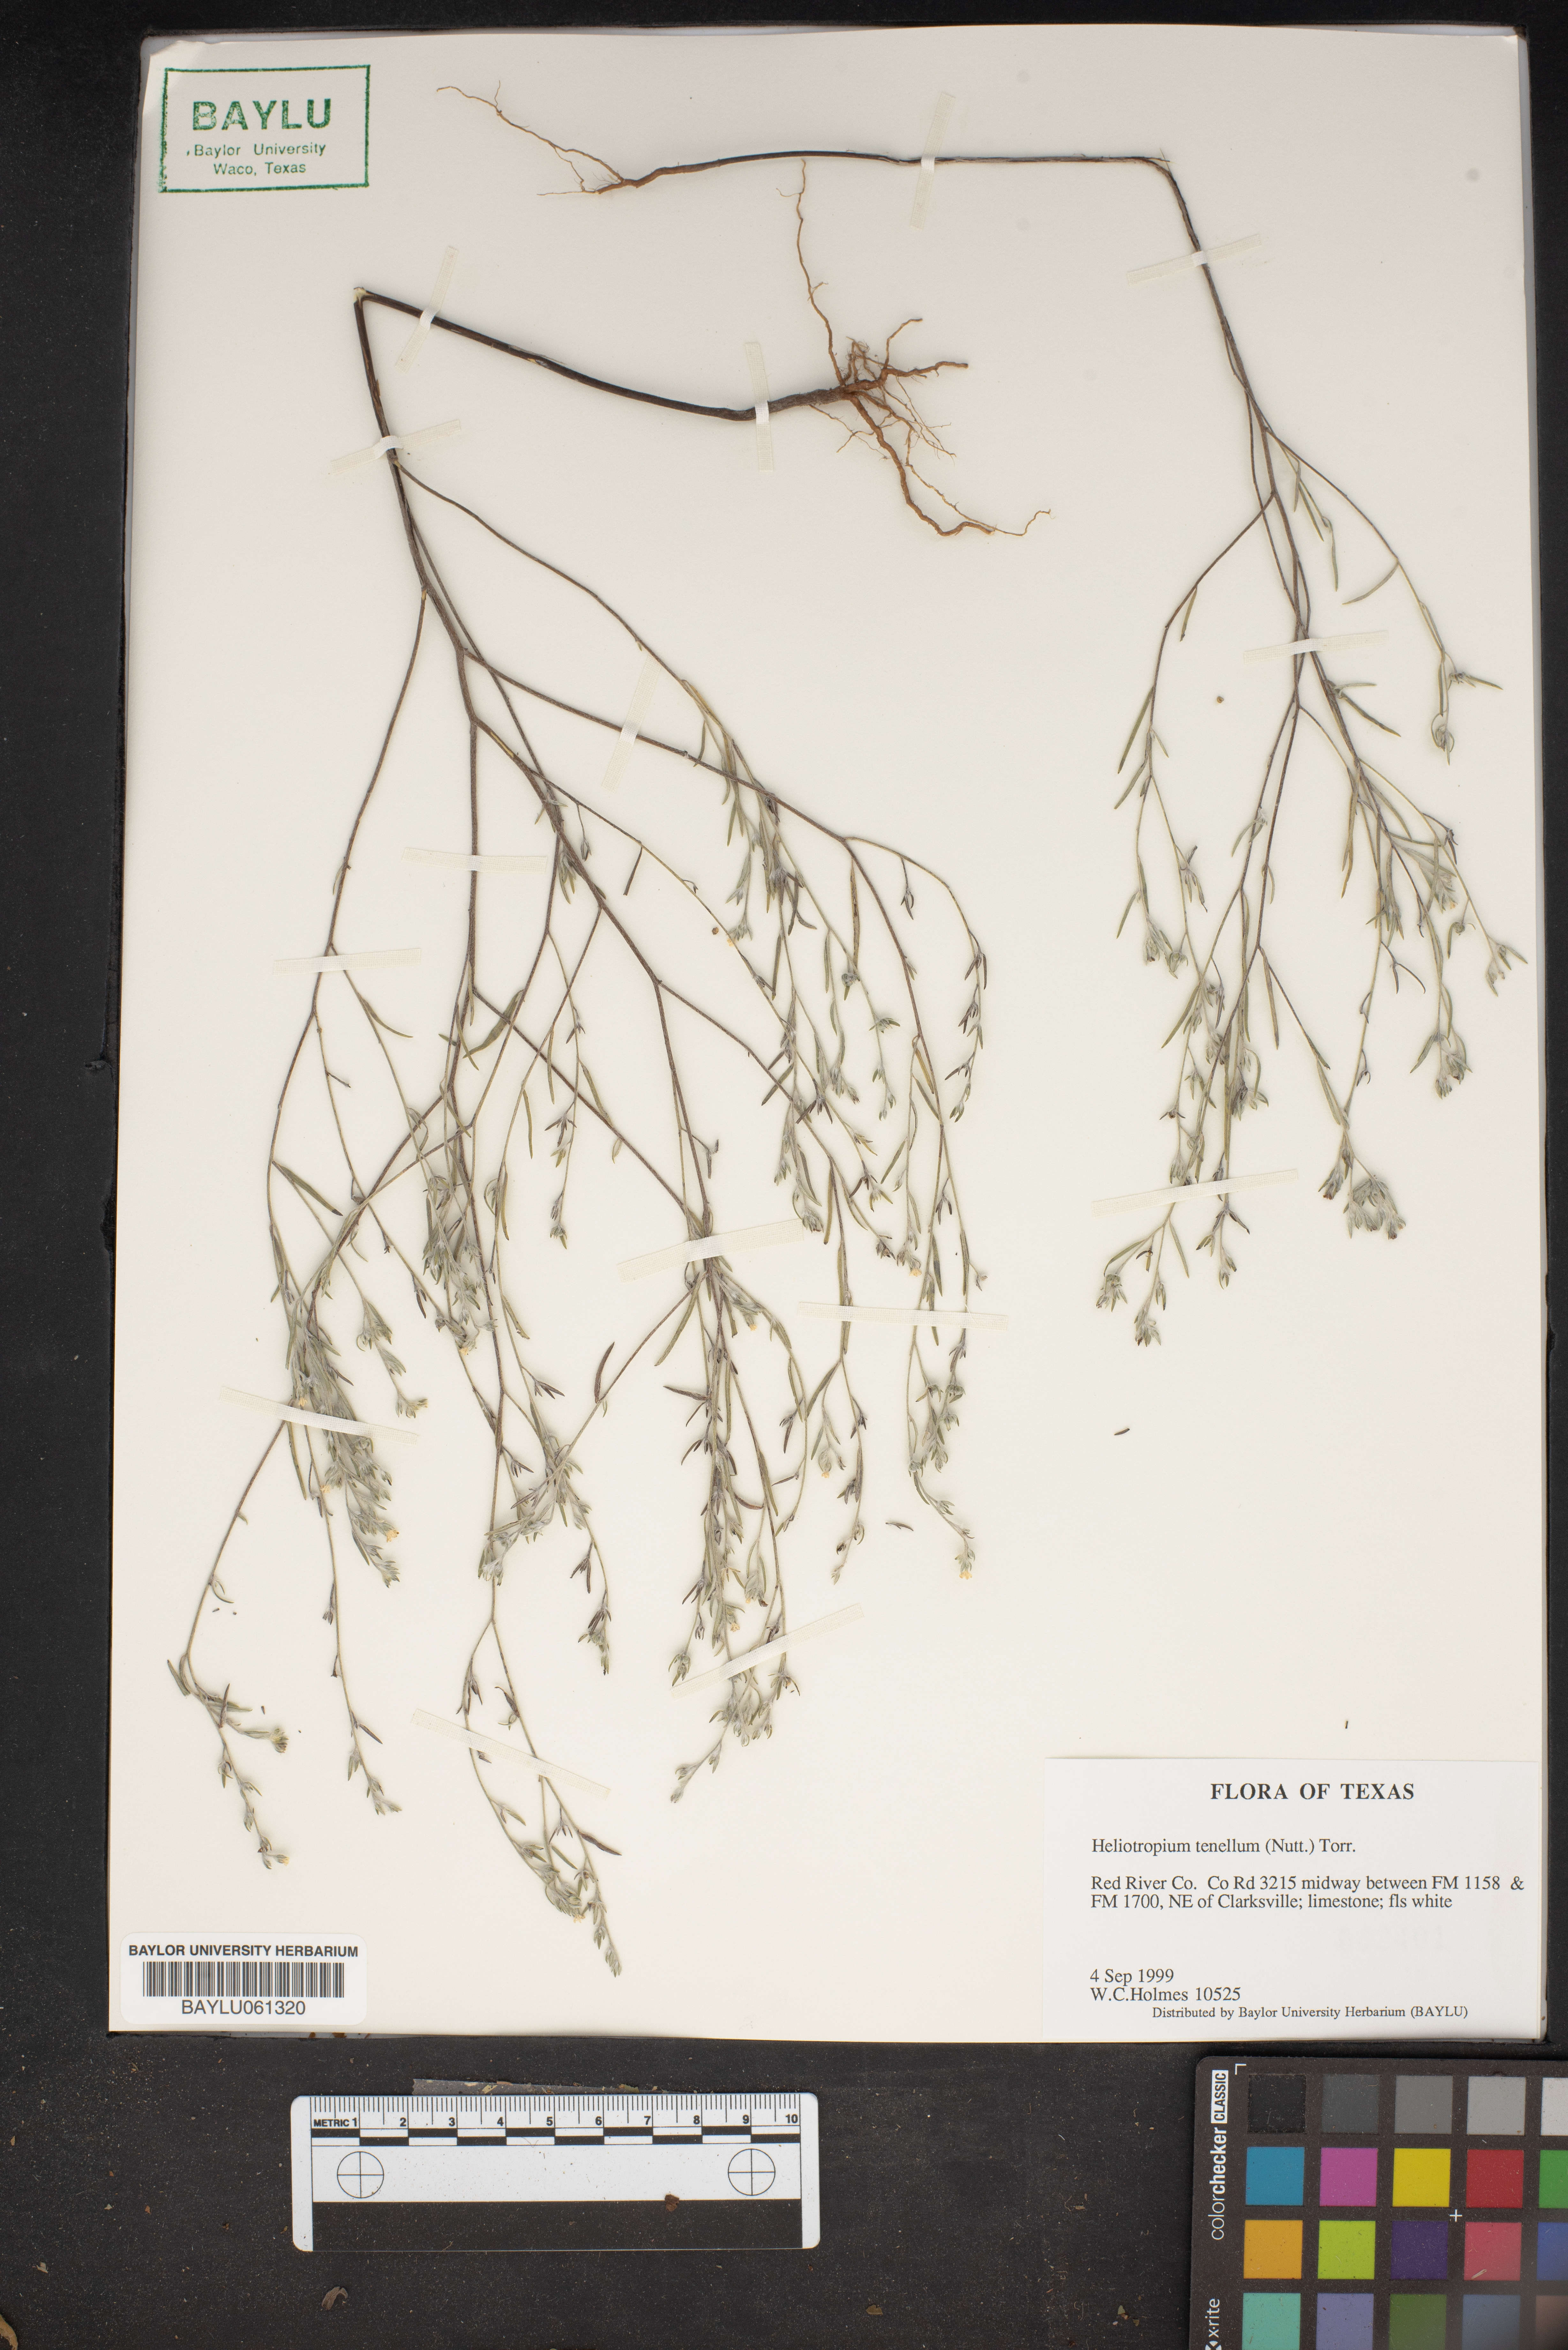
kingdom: Plantae
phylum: Tracheophyta
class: Magnoliopsida
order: Boraginales
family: Heliotropiaceae
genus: Euploca
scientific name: Euploca tenella
